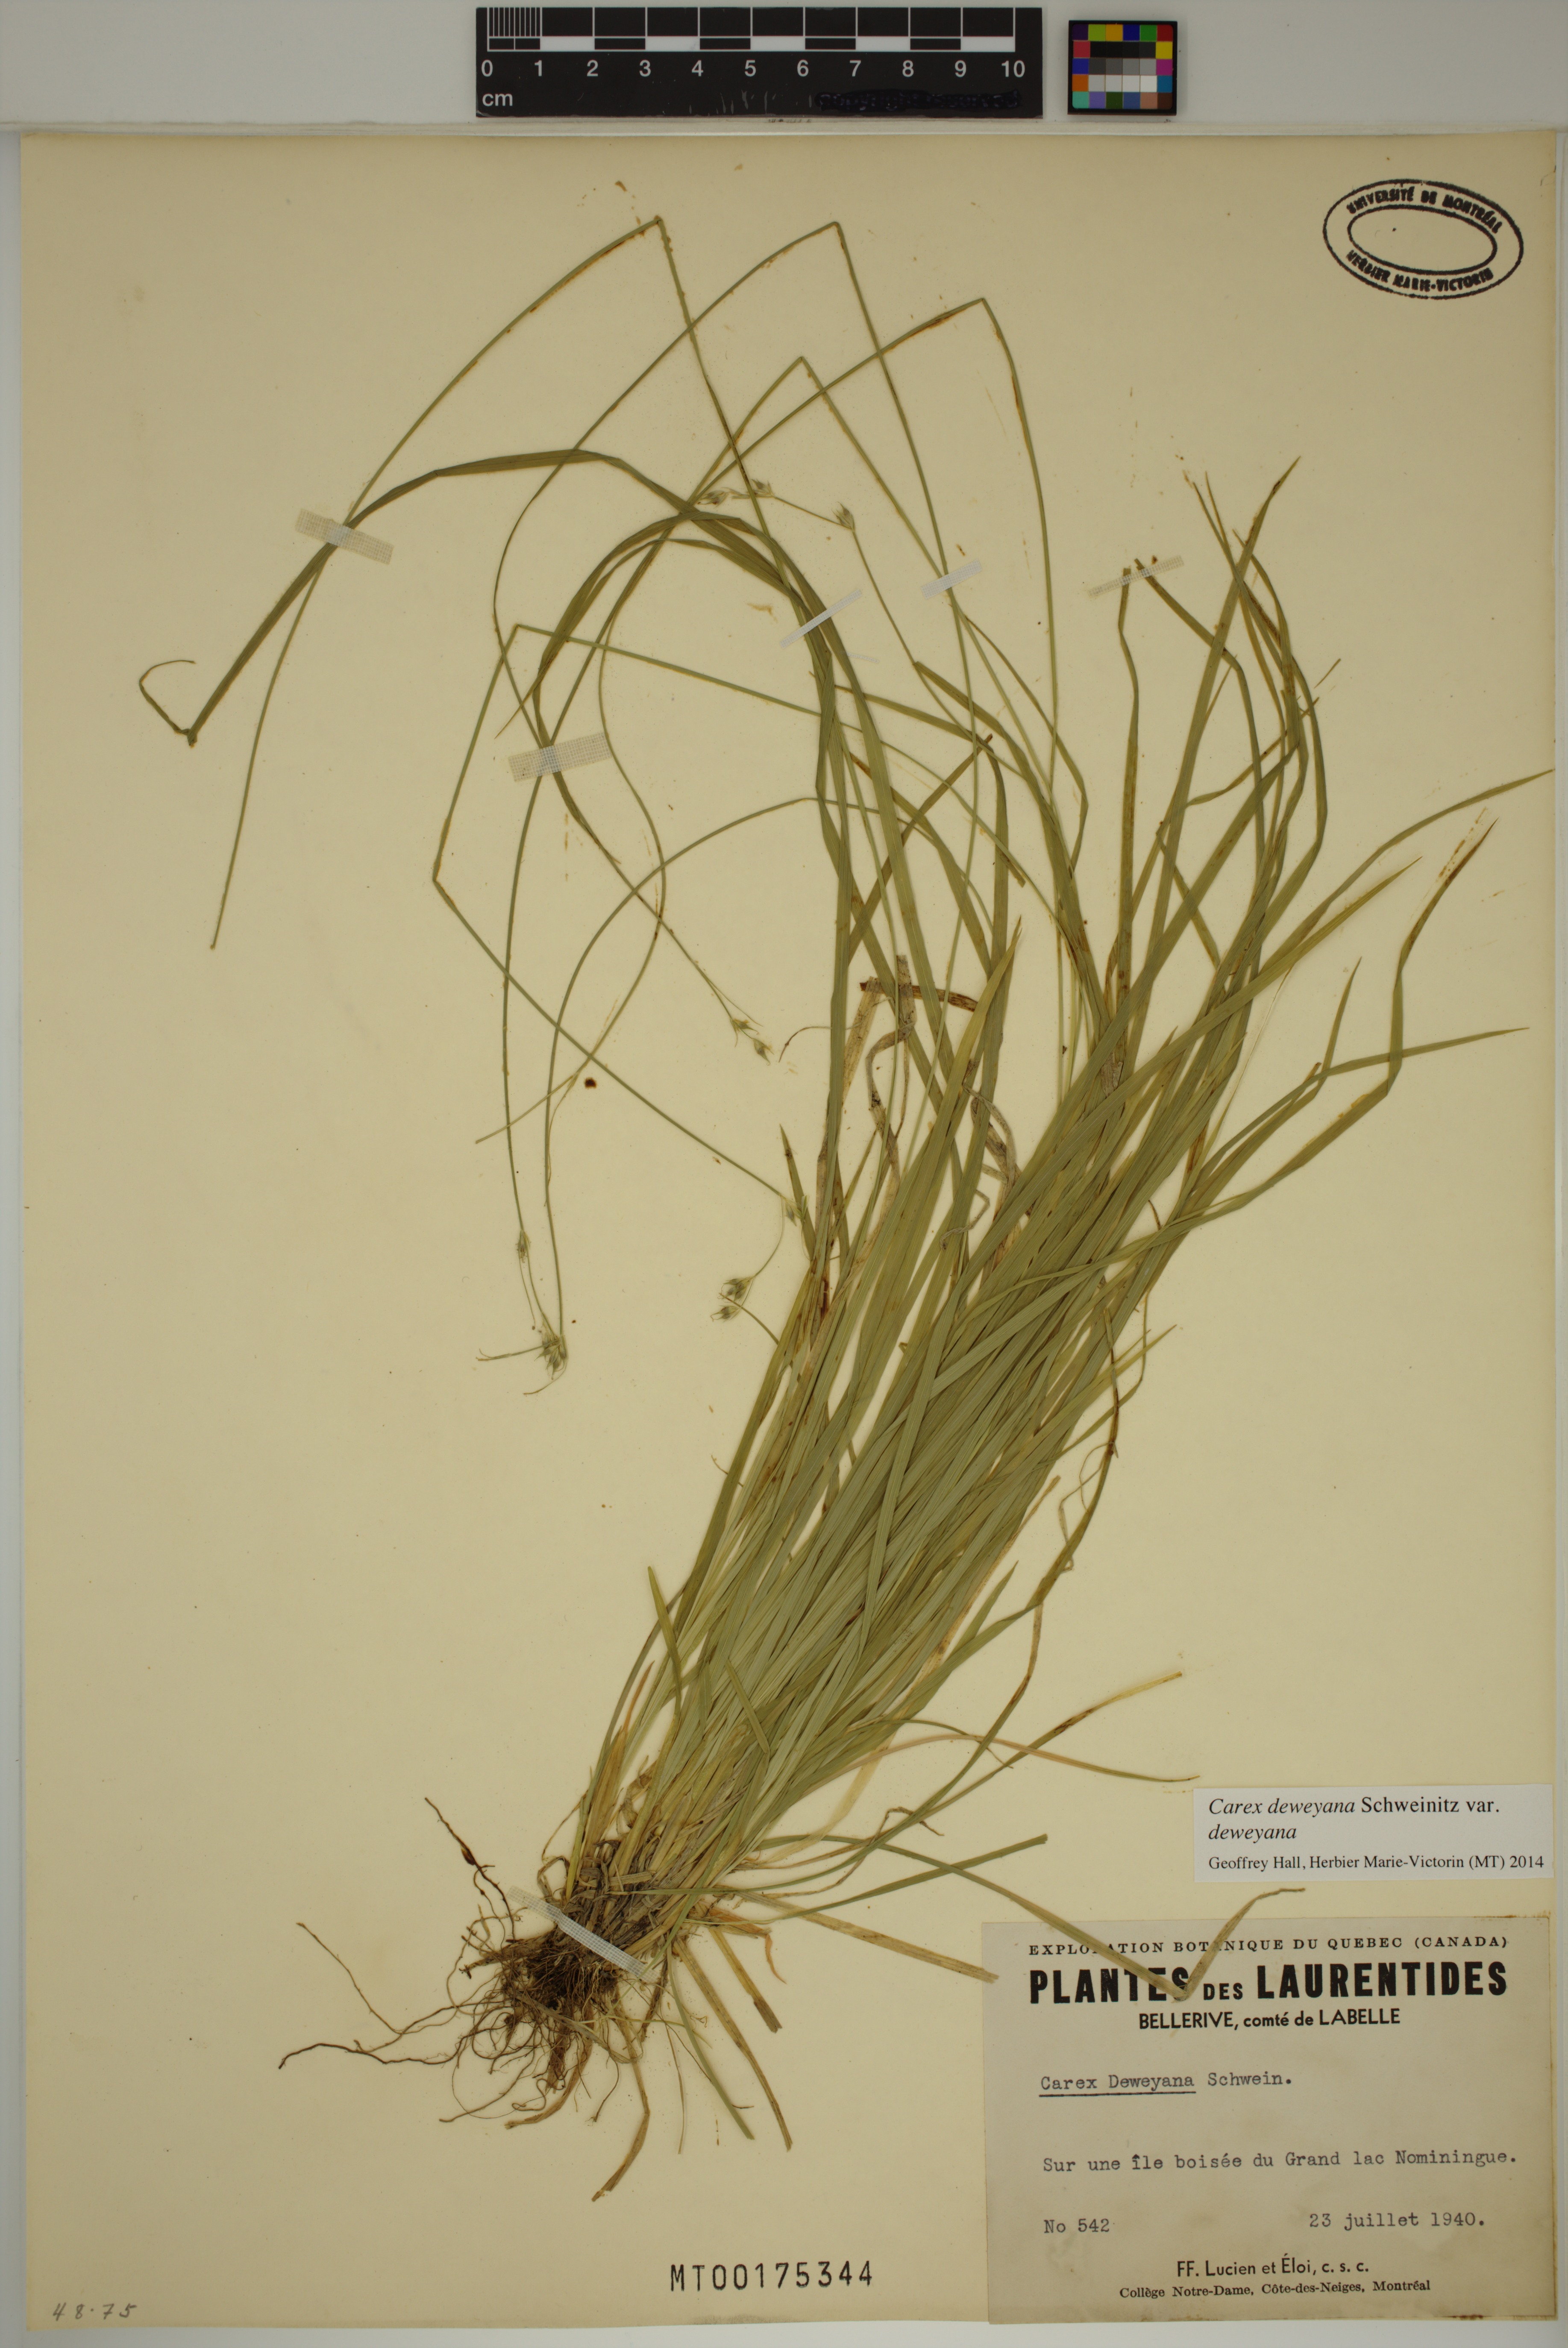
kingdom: Plantae
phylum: Tracheophyta
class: Liliopsida
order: Poales
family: Cyperaceae
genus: Carex
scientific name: Carex deweyana
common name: Dewey's sedge
